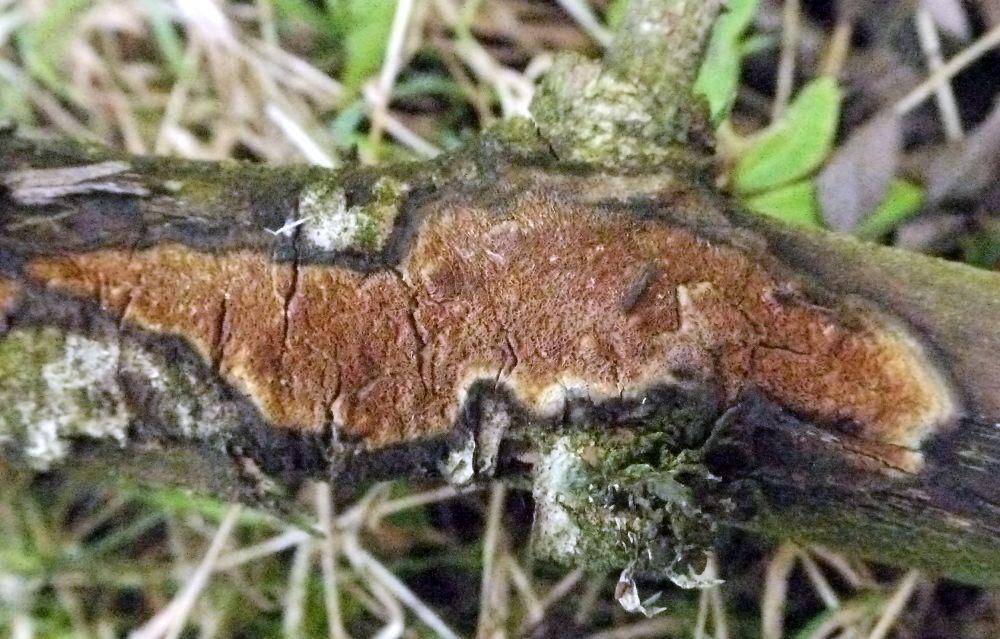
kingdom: Fungi
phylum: Basidiomycota
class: Agaricomycetes
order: Polyporales
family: Irpicaceae
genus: Resiniporus
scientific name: Resiniporus resinascens
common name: trist pastelporesvamp
